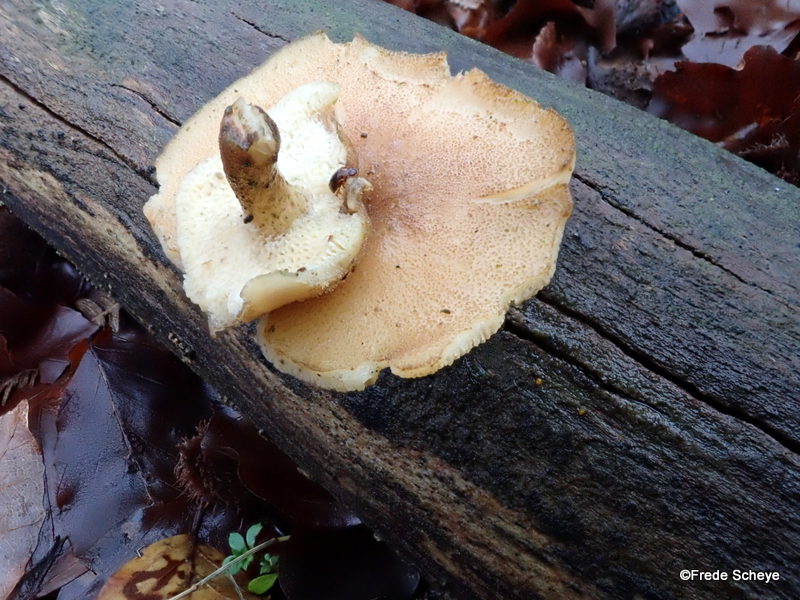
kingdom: Fungi
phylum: Basidiomycota
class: Agaricomycetes
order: Polyporales
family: Polyporaceae
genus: Lentinus
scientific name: Lentinus brumalis
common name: vinter-stilkporesvamp
